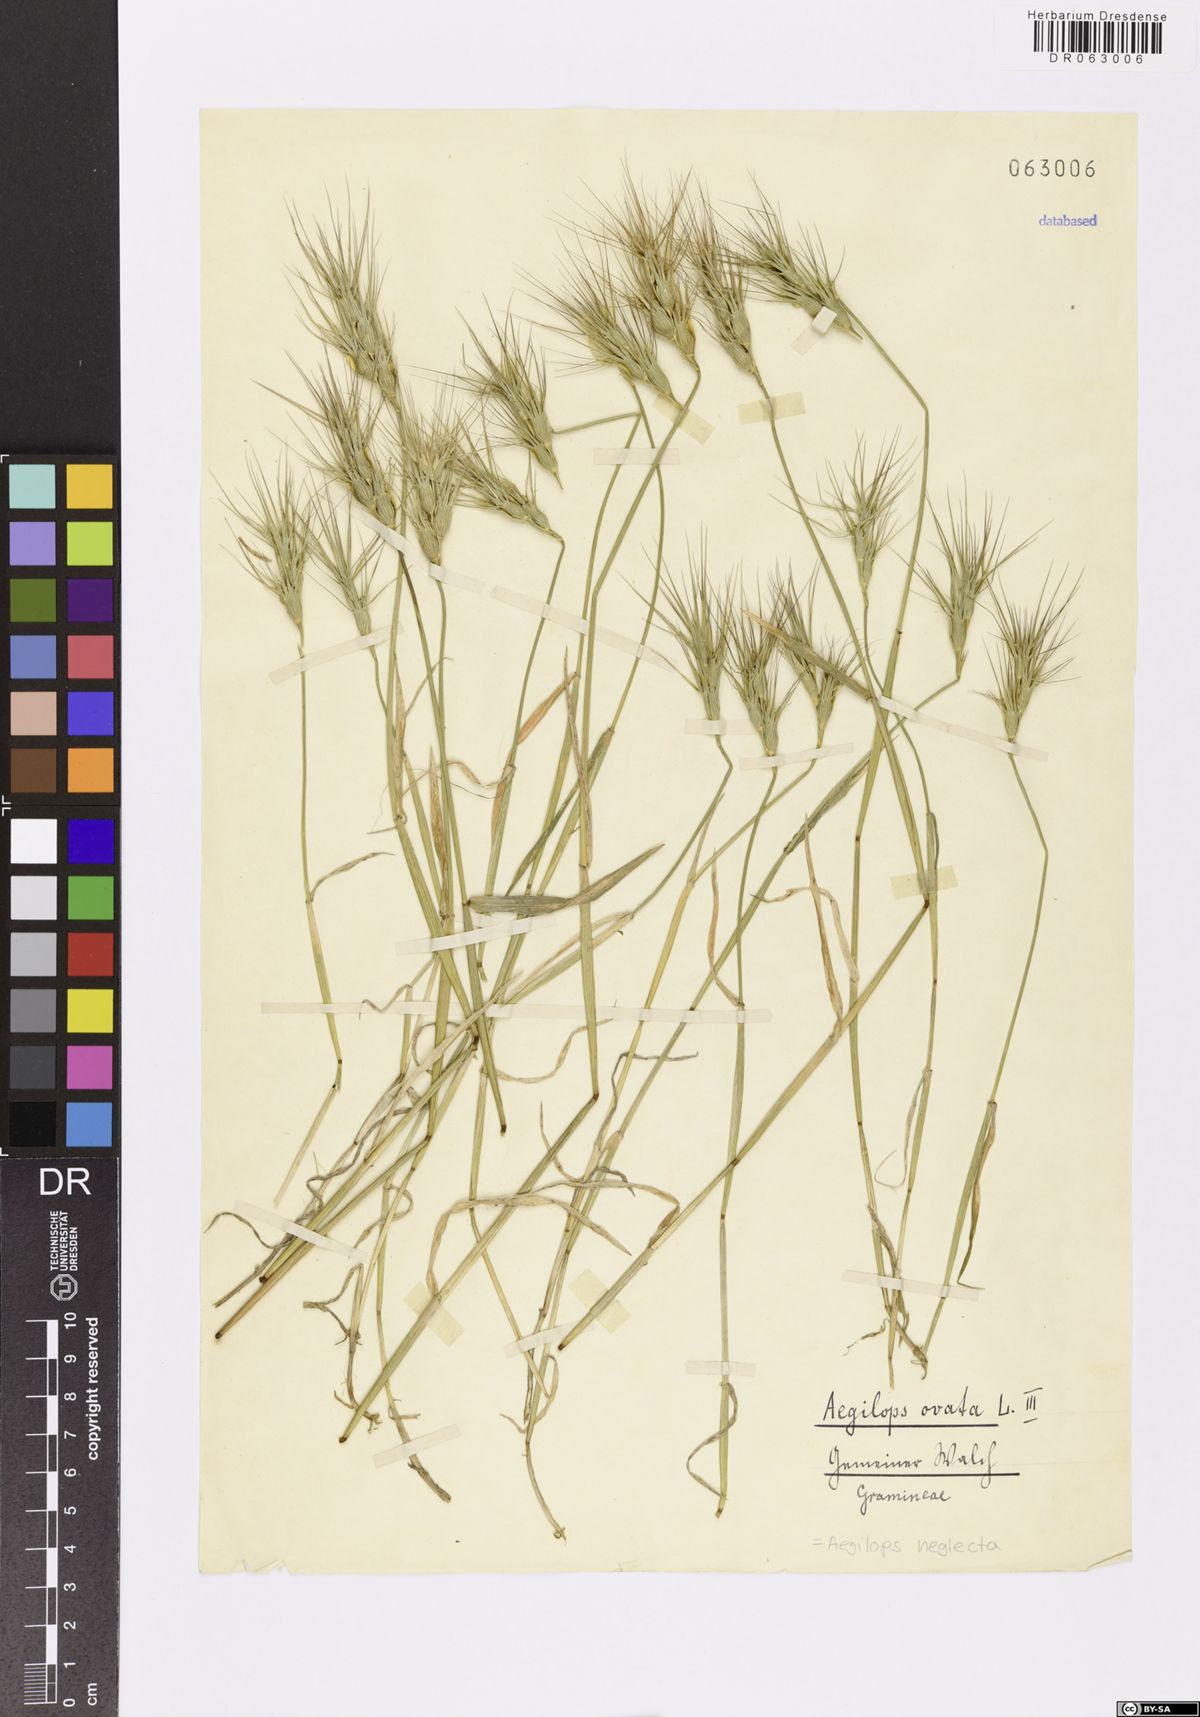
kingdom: Plantae
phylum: Tracheophyta
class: Liliopsida
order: Poales
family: Poaceae
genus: Aegilops
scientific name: Aegilops neglecta
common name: Three-awn goat grass
